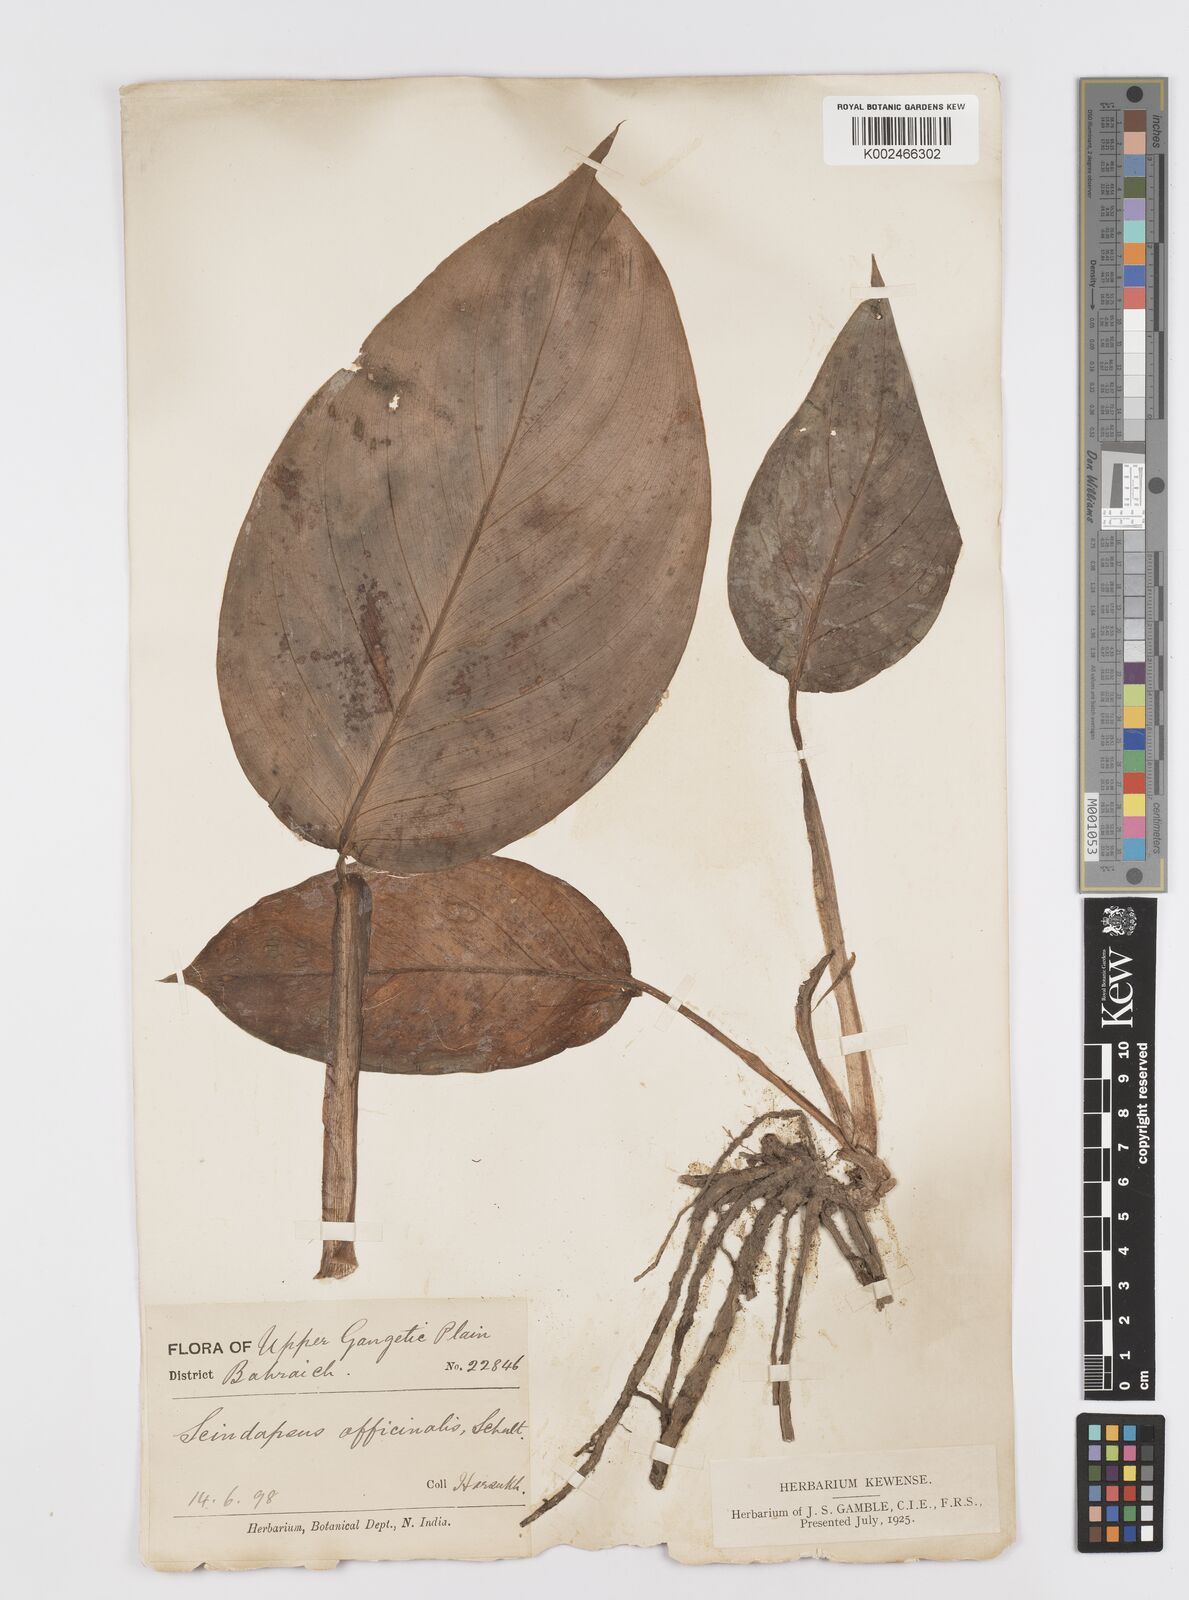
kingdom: Plantae
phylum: Tracheophyta
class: Liliopsida
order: Alismatales
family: Araceae
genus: Scindapsus
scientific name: Scindapsus officinalis
